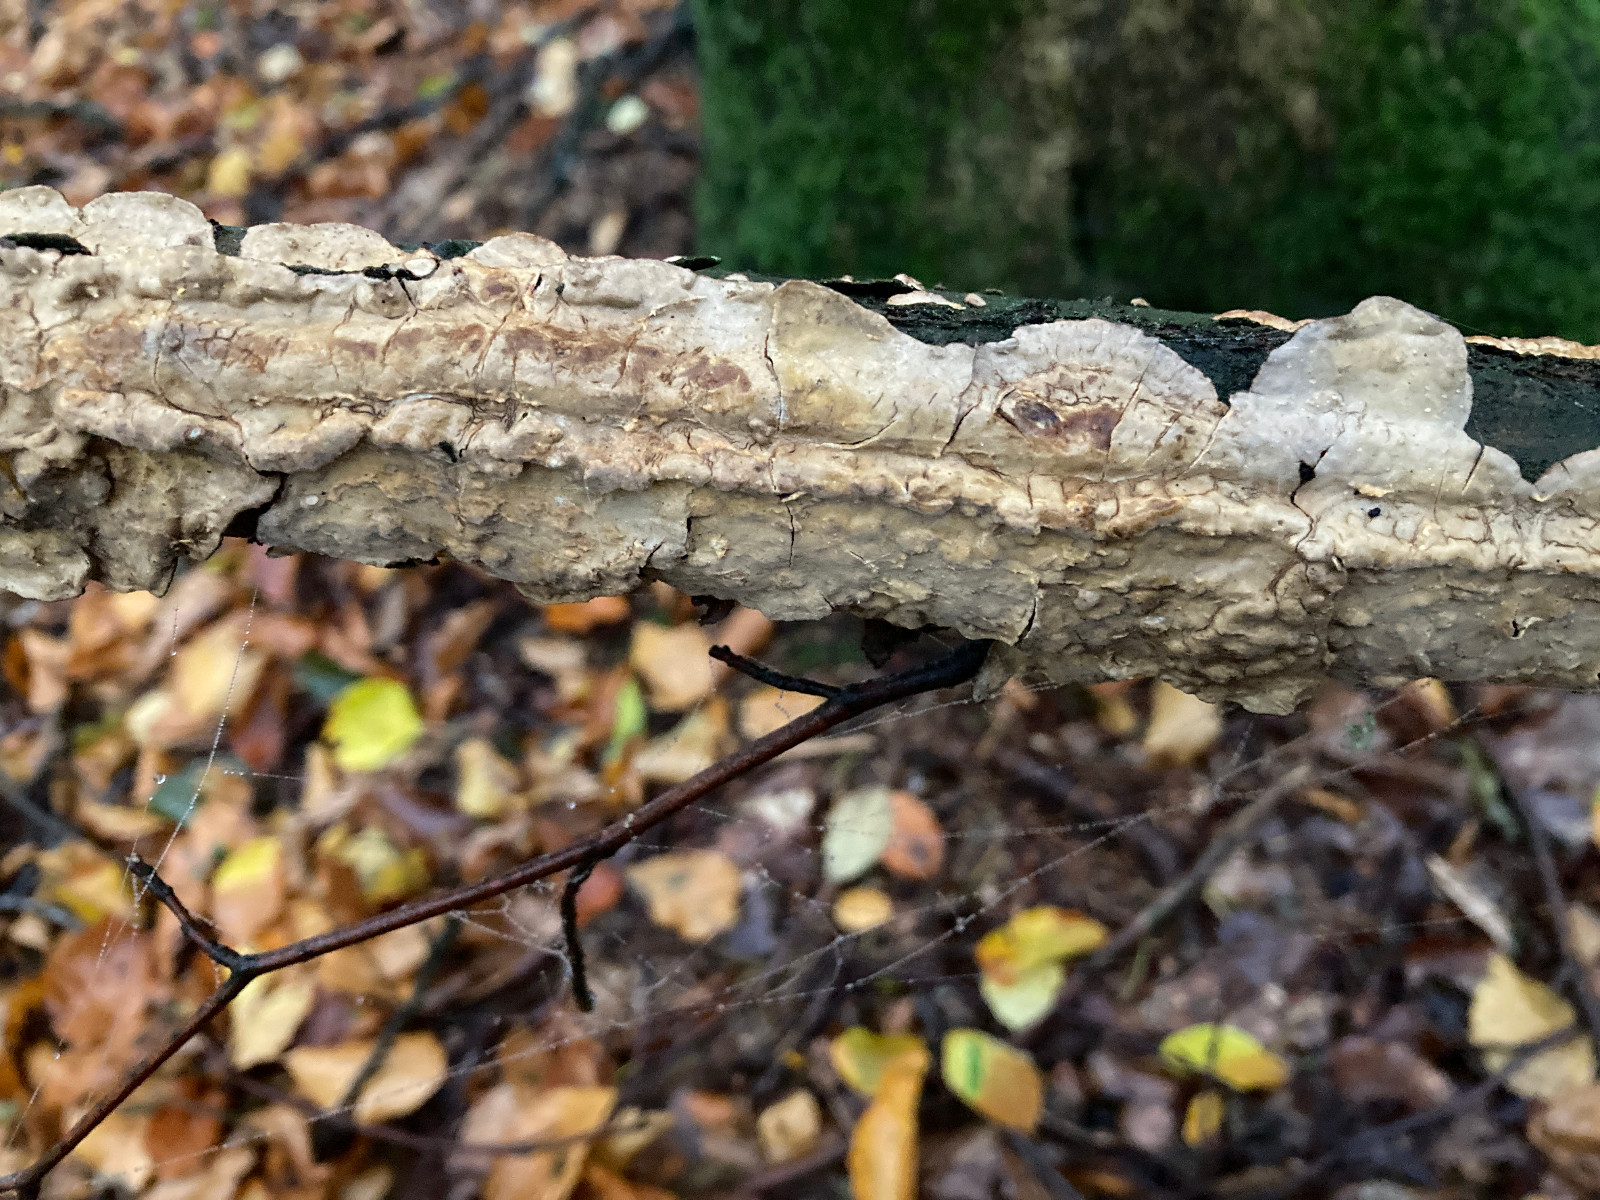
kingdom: Fungi
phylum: Basidiomycota
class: Agaricomycetes
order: Russulales
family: Stereaceae
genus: Stereum
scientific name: Stereum rugosum
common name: rynket lædersvamp
